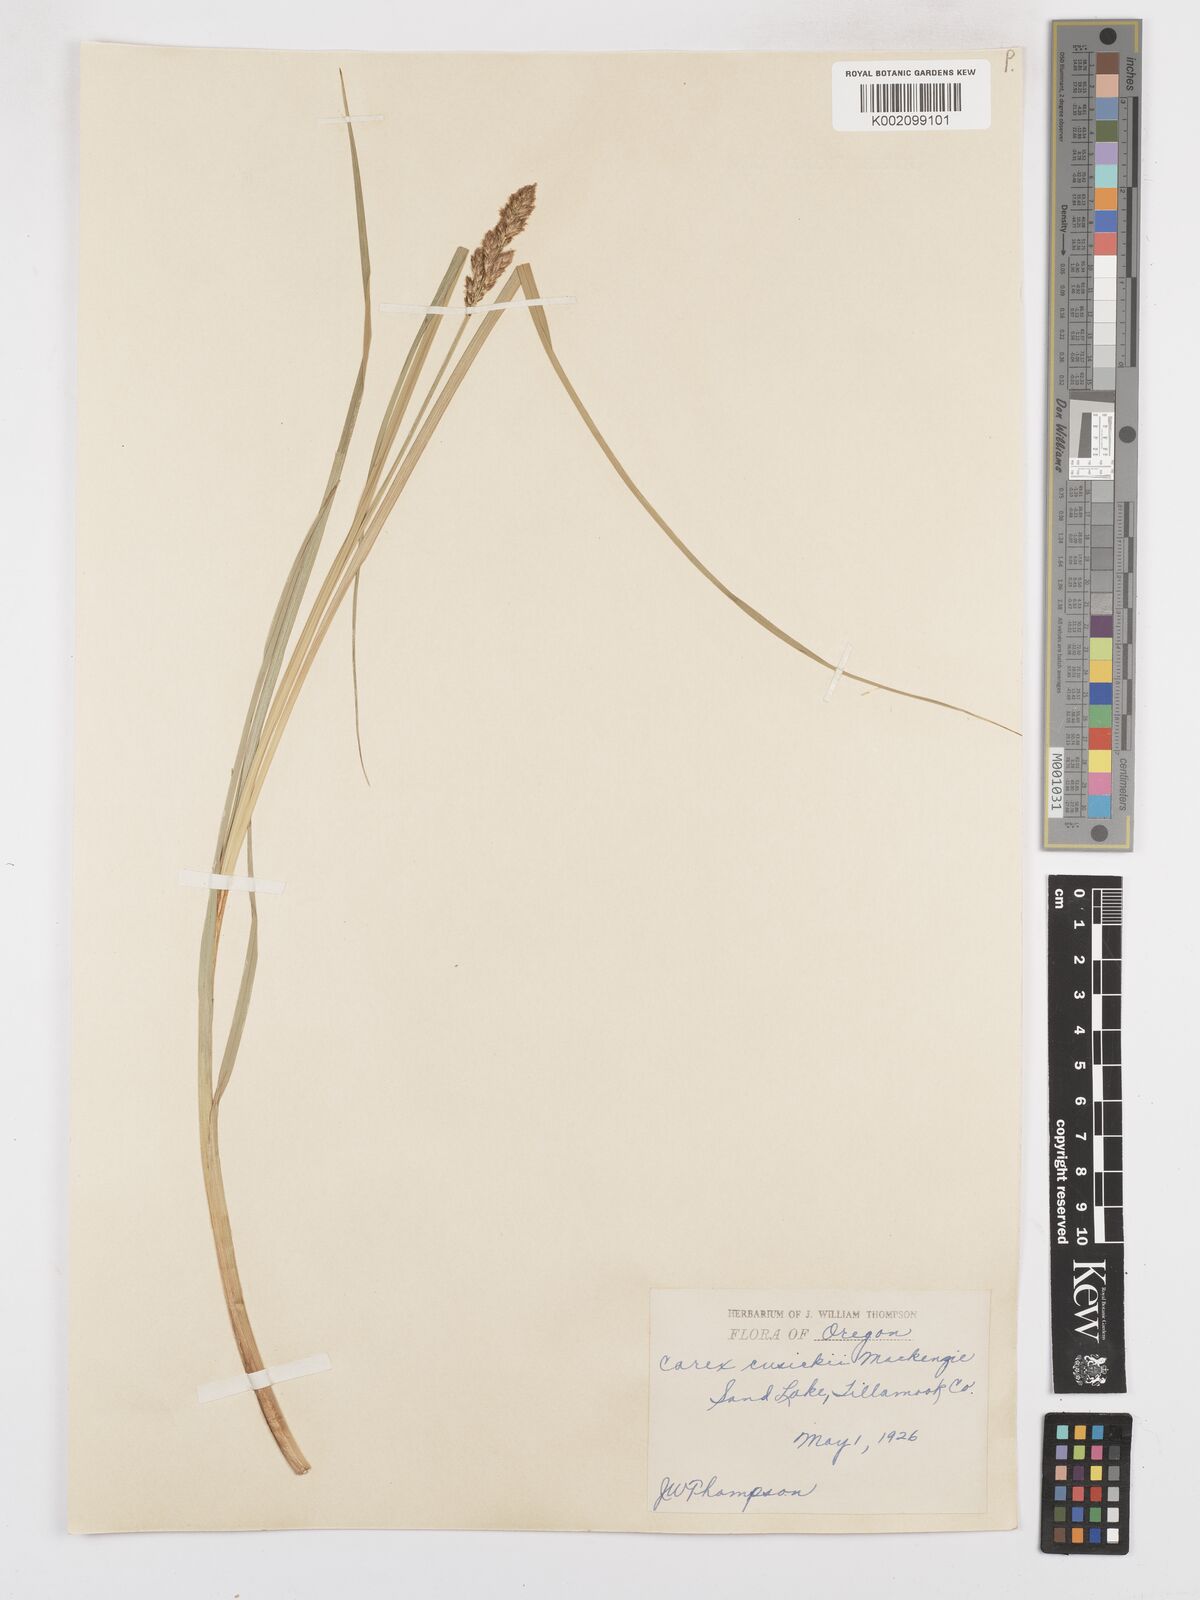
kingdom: Plantae
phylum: Tracheophyta
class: Liliopsida
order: Poales
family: Cyperaceae
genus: Carex
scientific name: Carex cusickii
